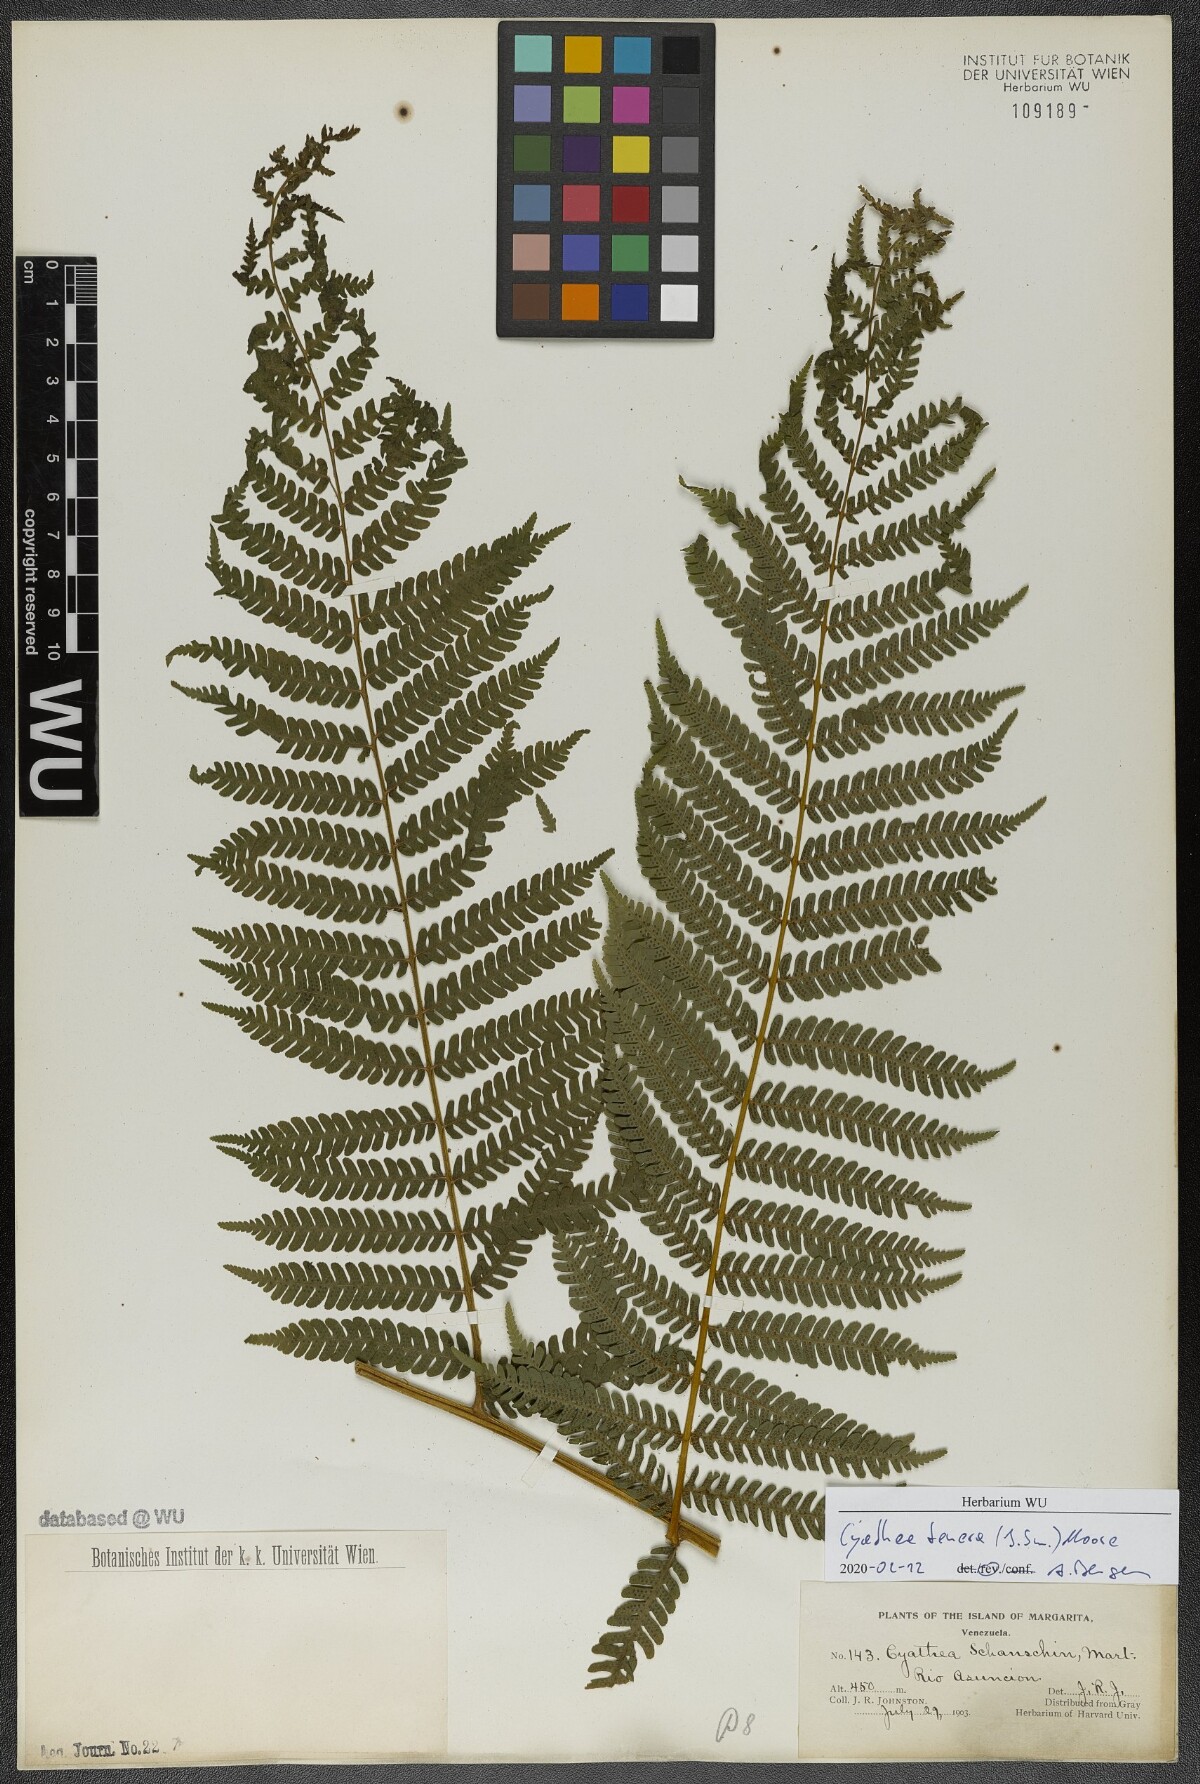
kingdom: Plantae
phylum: Tracheophyta
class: Polypodiopsida
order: Cyatheales
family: Cyatheaceae
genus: Cyathea
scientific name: Cyathea tenera
